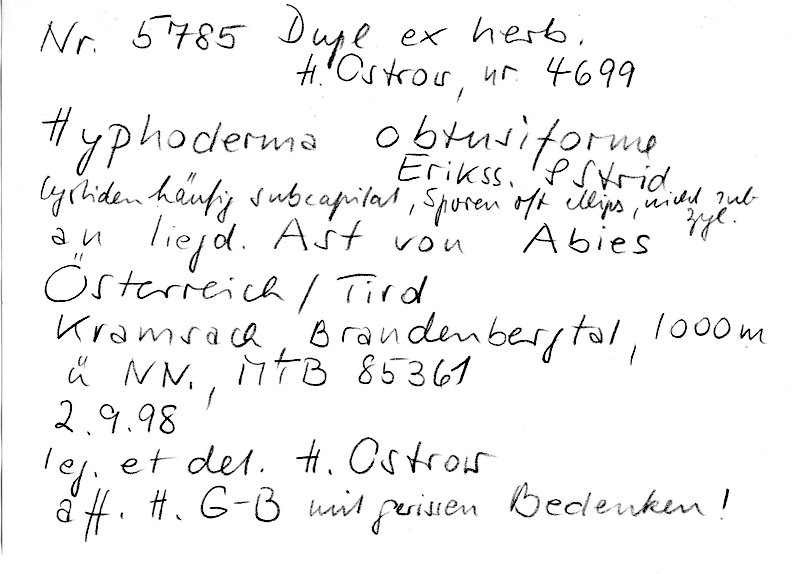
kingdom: Fungi
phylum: Basidiomycota
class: Agaricomycetes
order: Polyporales
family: Hyphodermataceae
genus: Hyphoderma
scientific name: Hyphoderma obtusiforme
